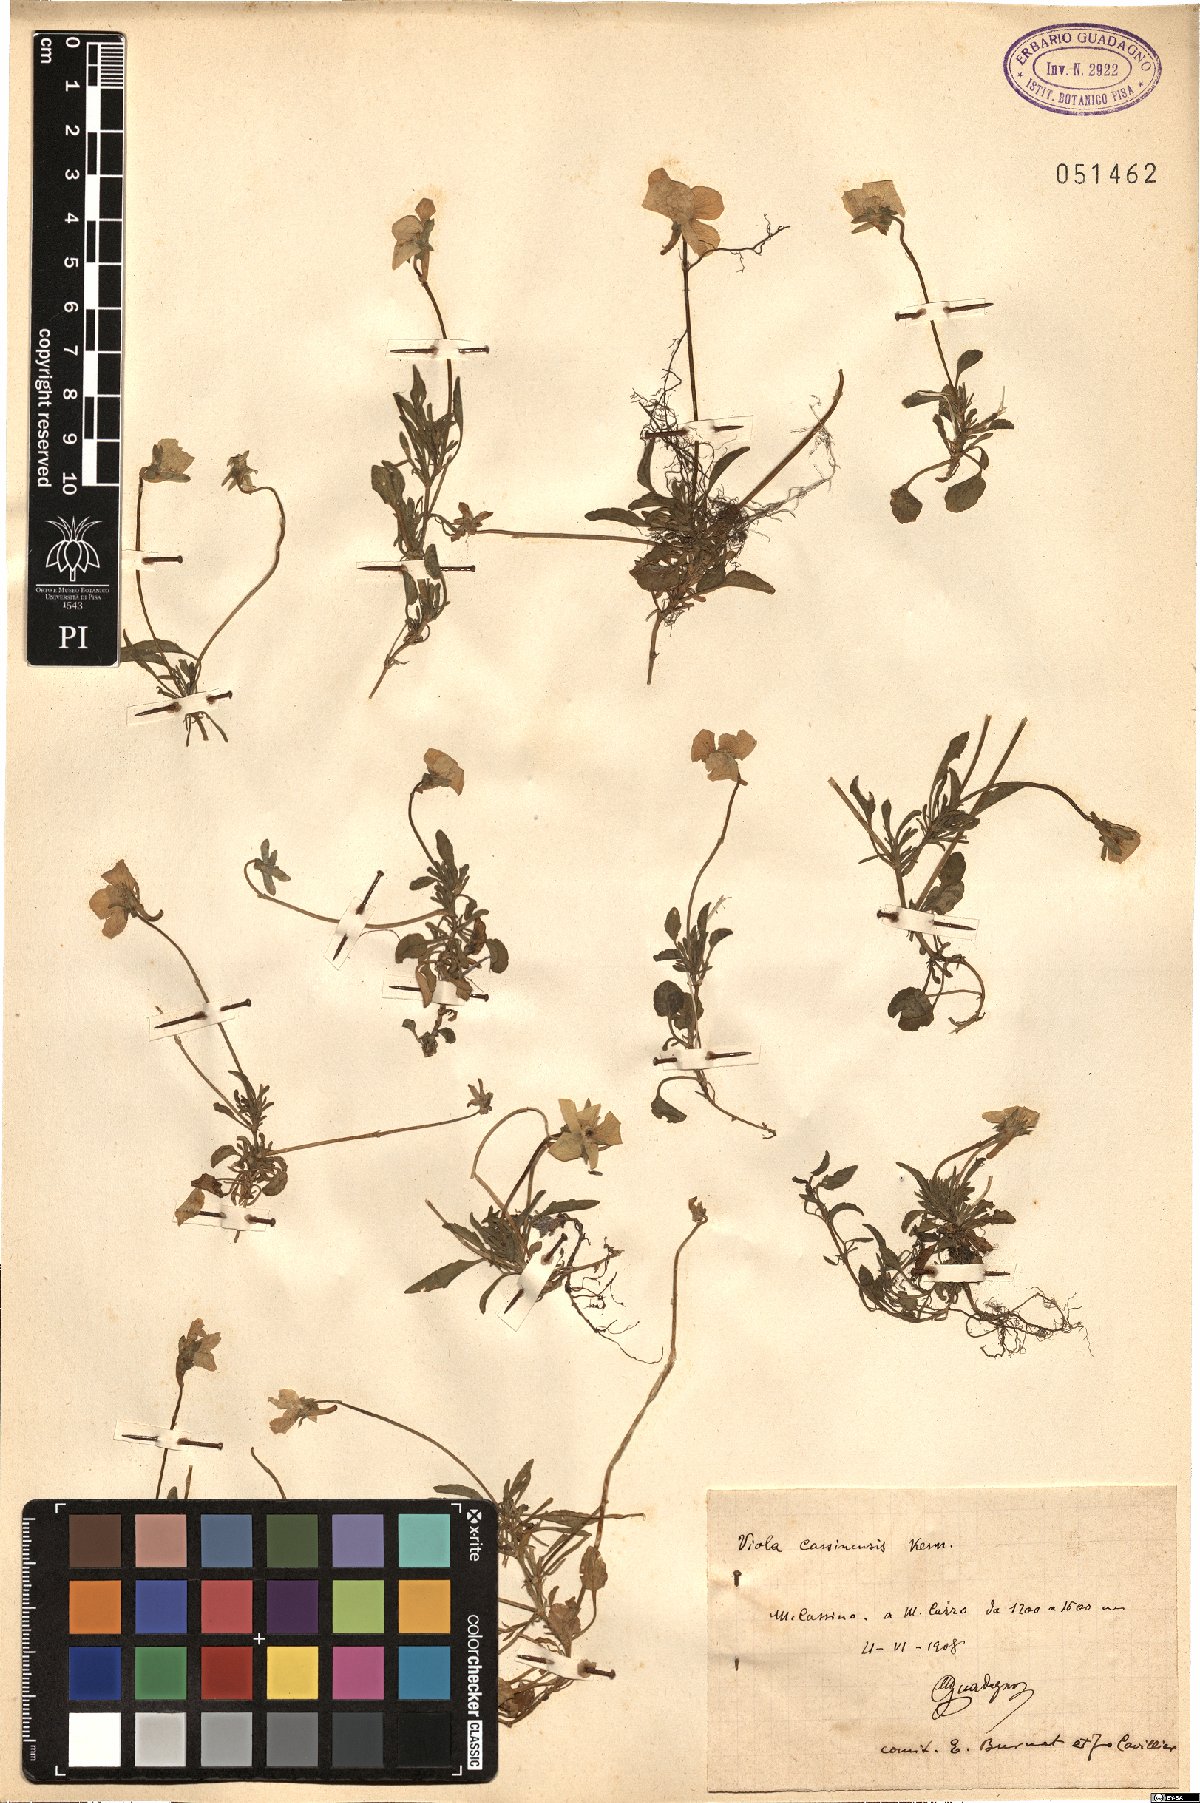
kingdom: Plantae
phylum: Tracheophyta
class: Magnoliopsida
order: Malpighiales
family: Violaceae
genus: Viola
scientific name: Viola pseudogracilis
